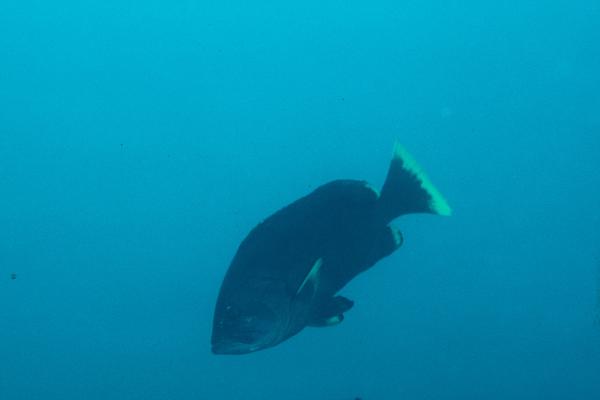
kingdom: Animalia
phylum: Chordata
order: Perciformes
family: Serranidae
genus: Epinephelus
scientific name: Epinephelus flavocaeruleus
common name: Blue and yellow grouper
